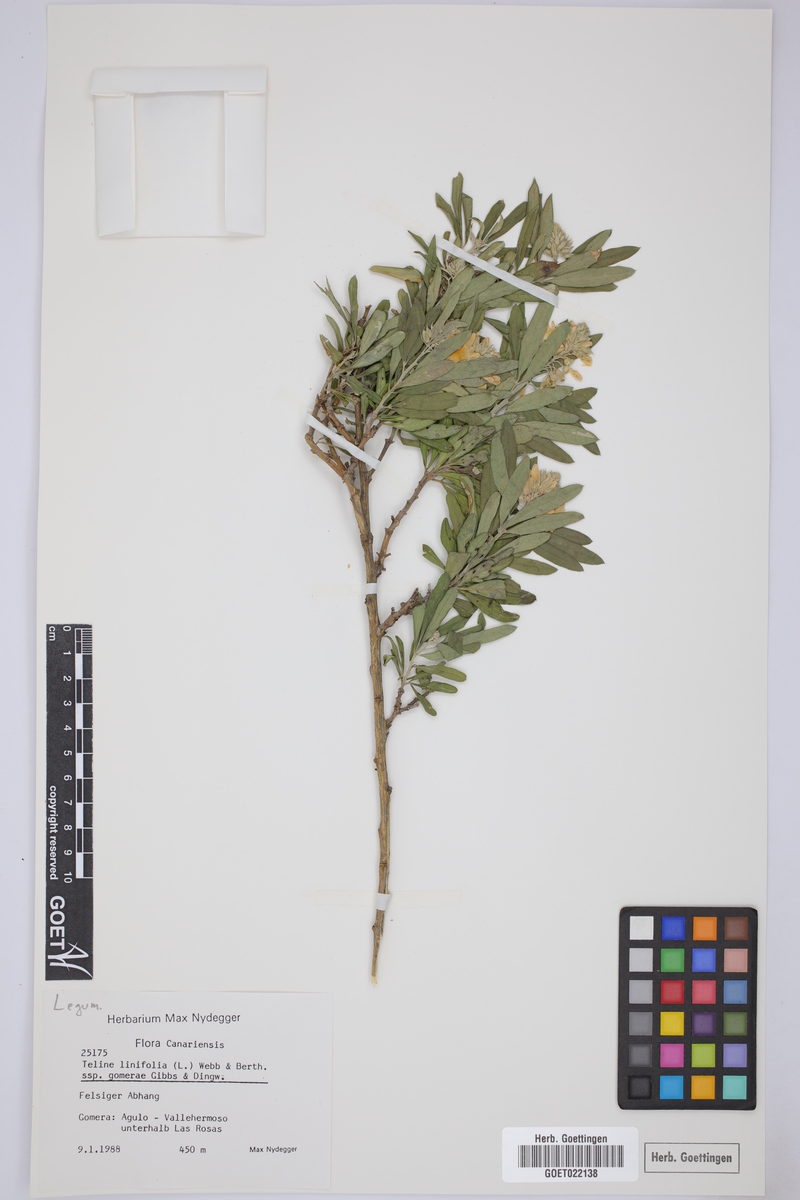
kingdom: Plantae
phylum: Tracheophyta
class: Magnoliopsida
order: Fabales
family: Fabaceae
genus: Genista
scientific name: Genista linifolia
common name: Mediterranean broom
